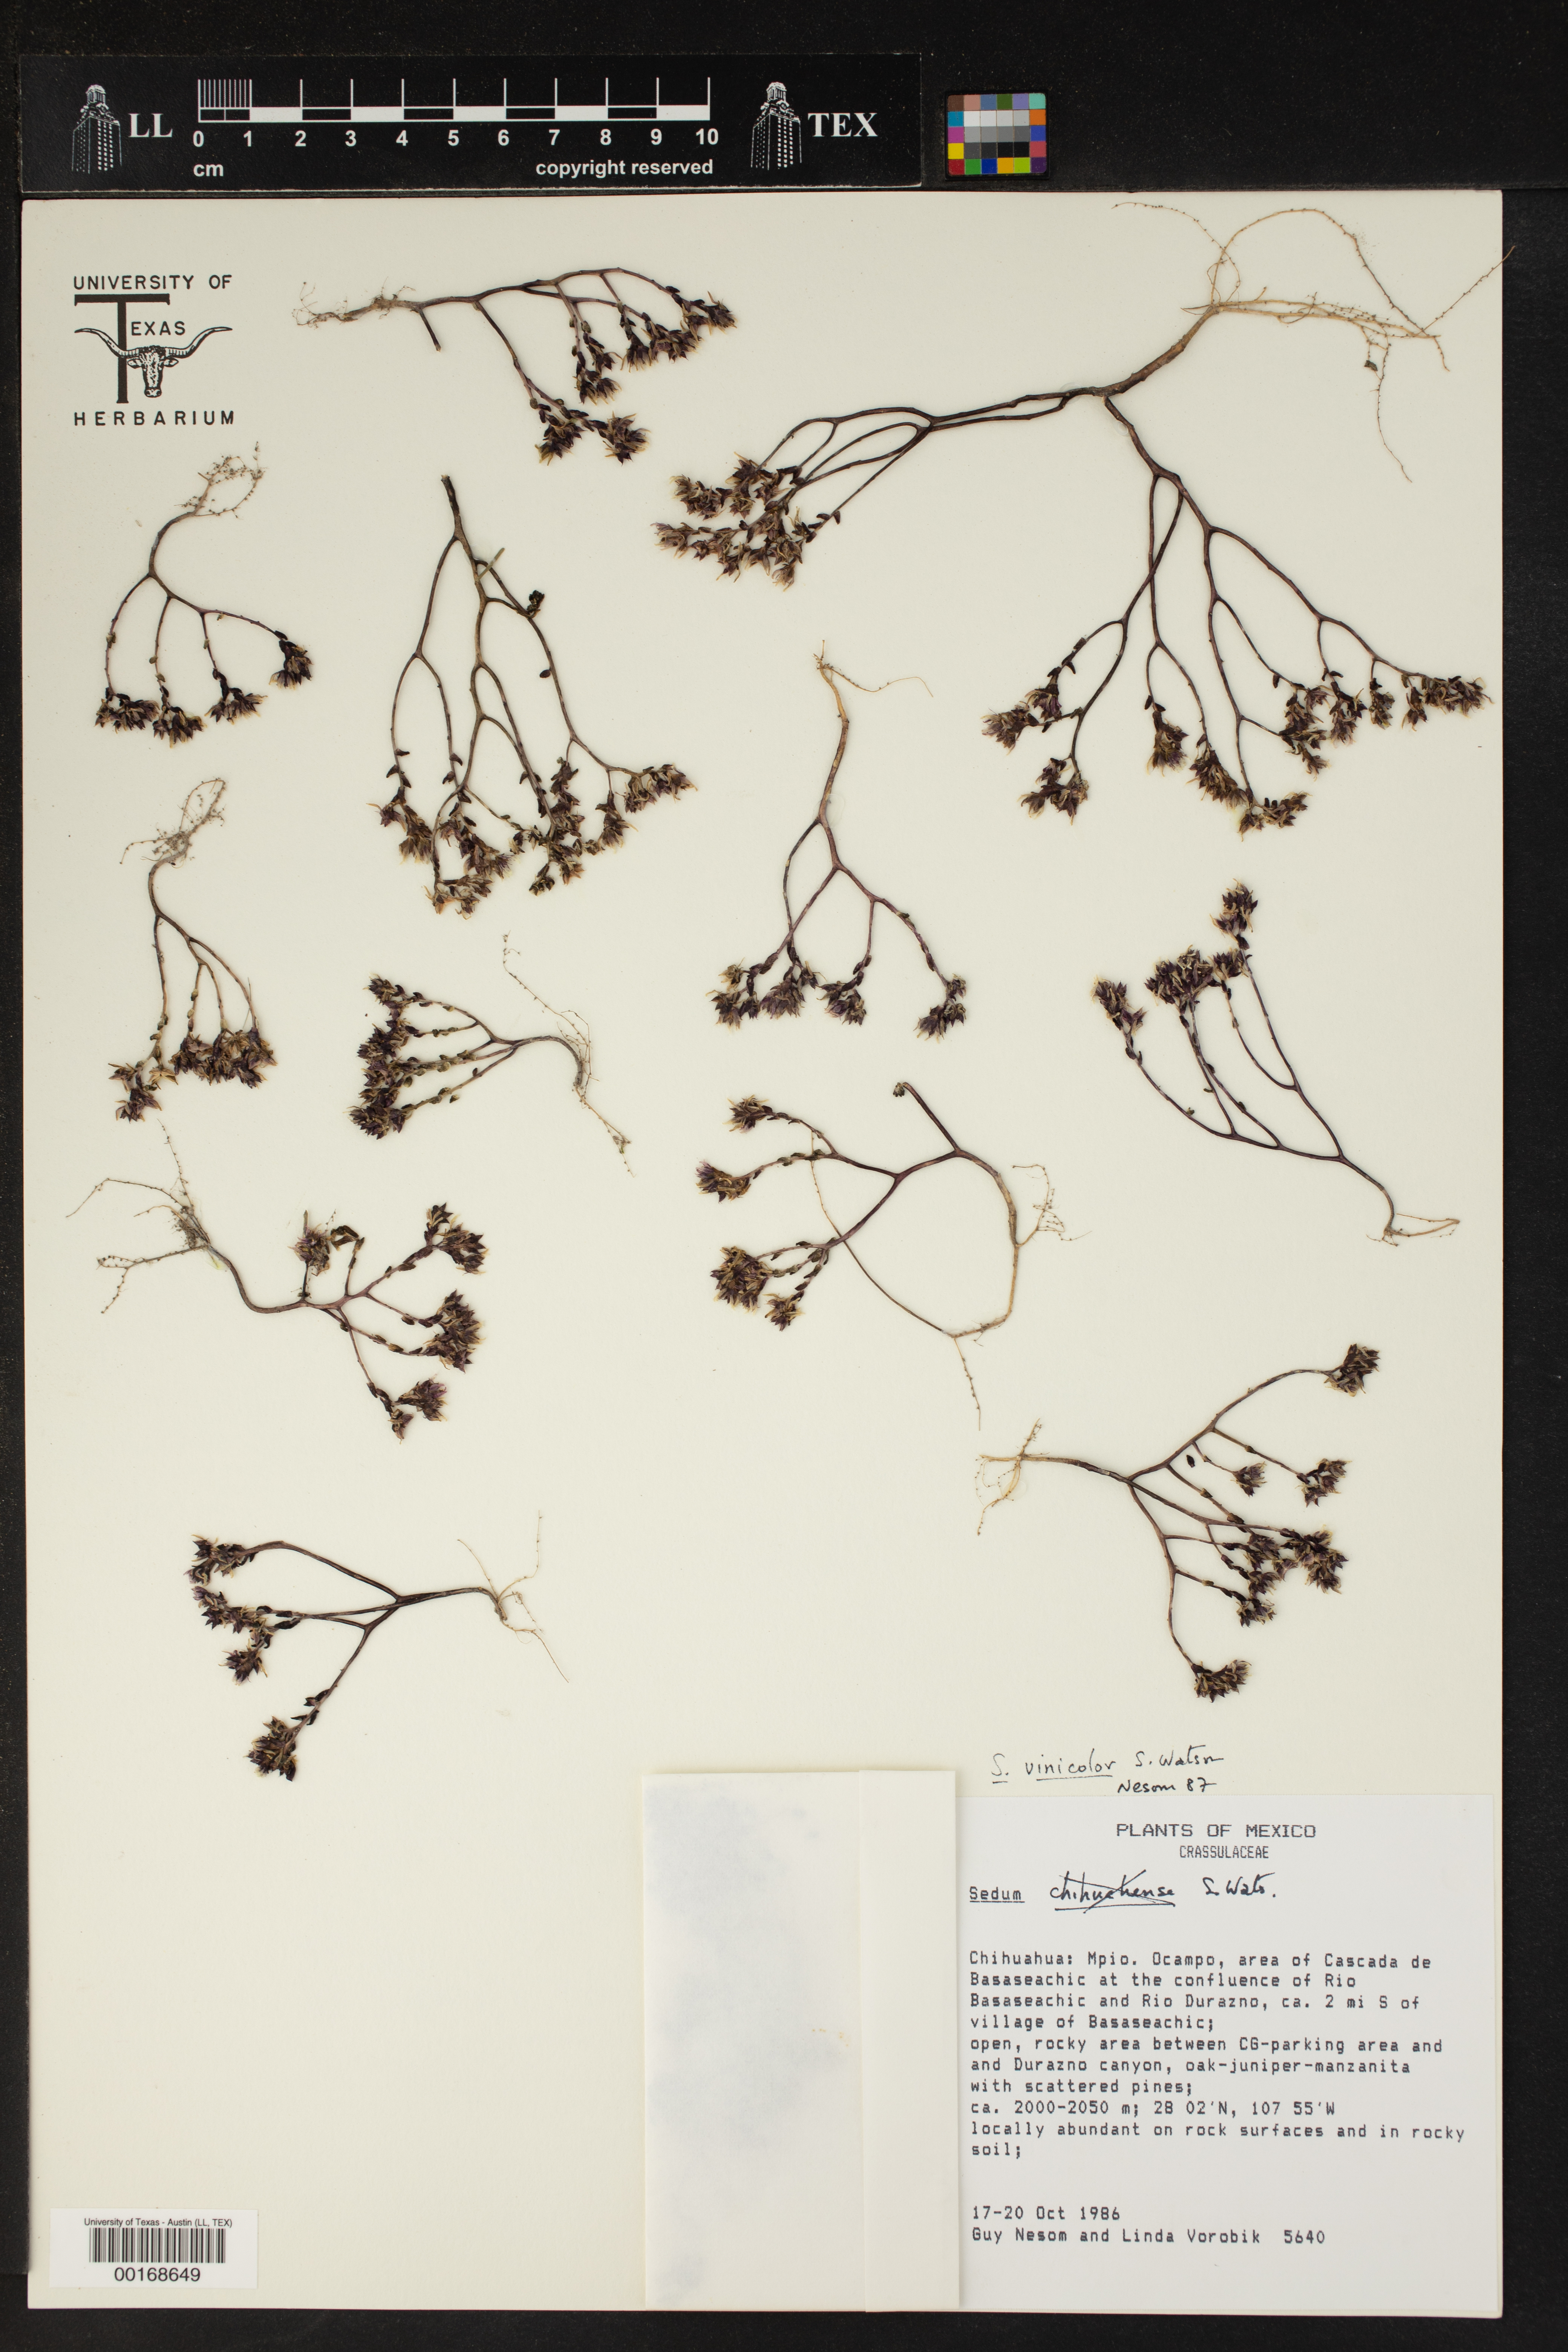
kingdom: Plantae
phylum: Tracheophyta
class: Magnoliopsida
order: Saxifragales
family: Crassulaceae
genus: Sedum
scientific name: Sedum vinicolor
